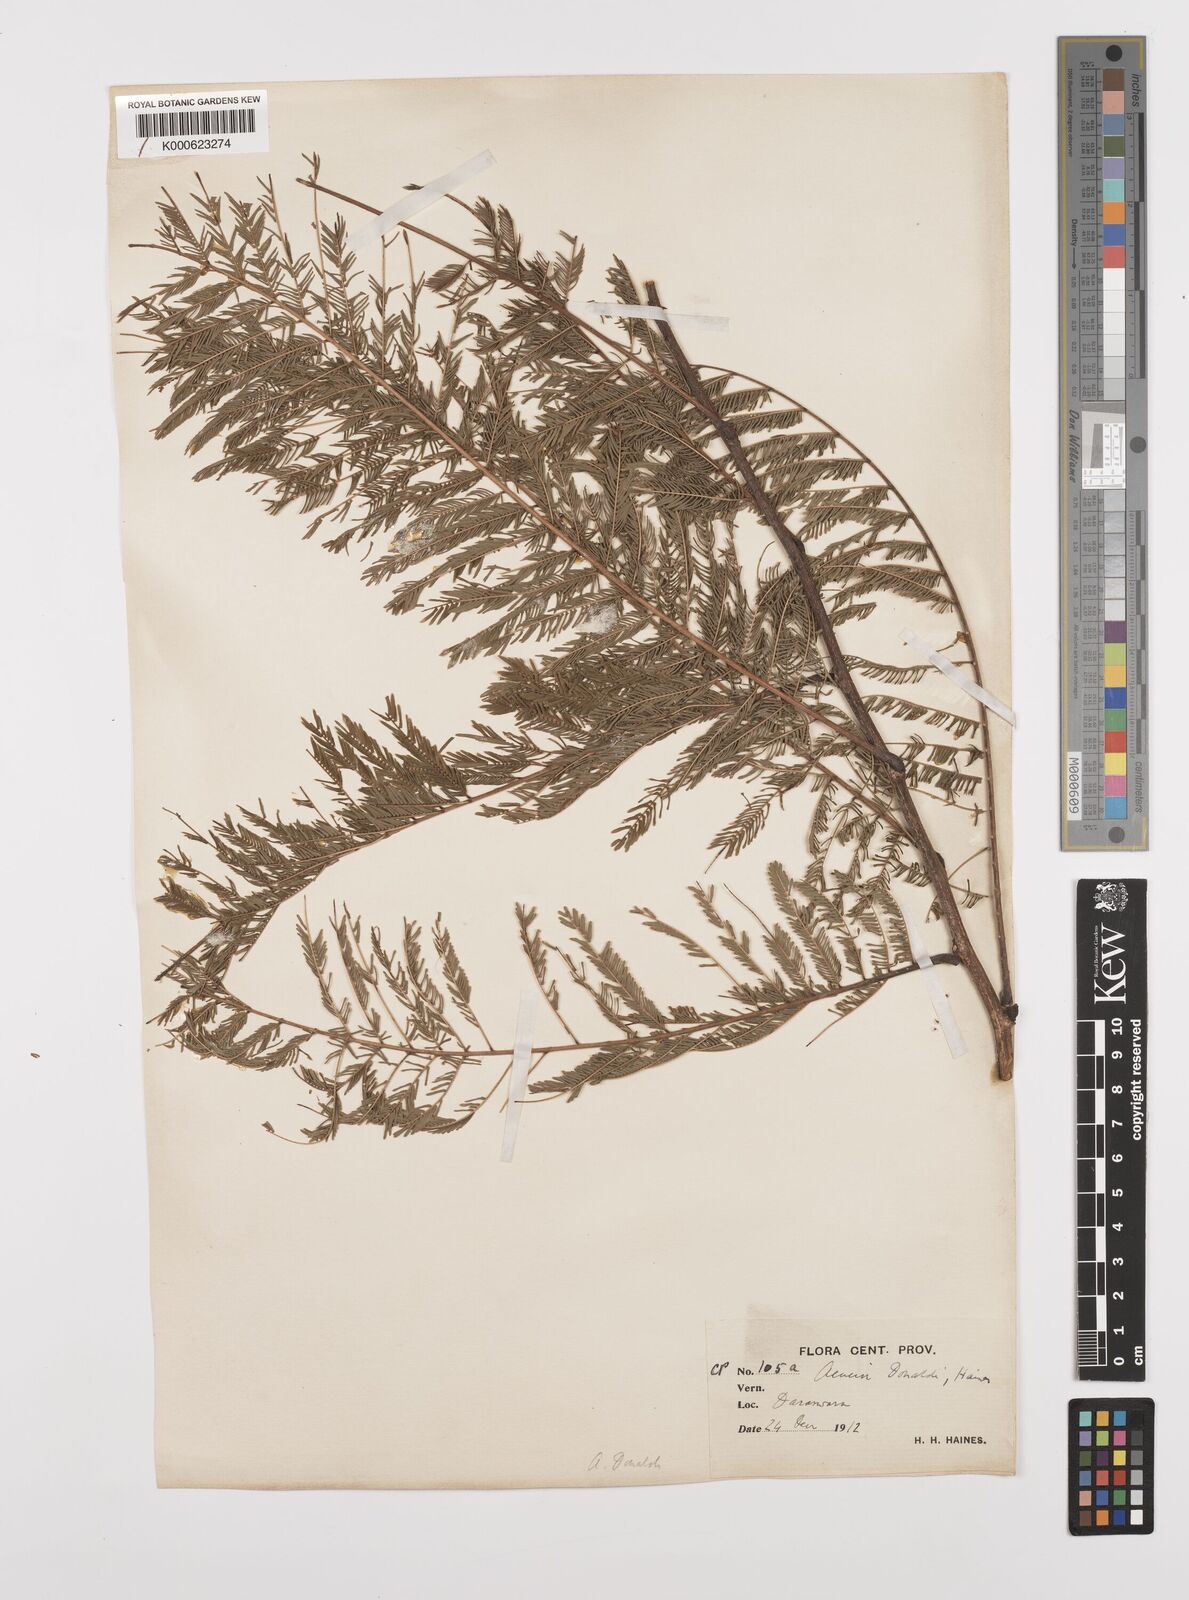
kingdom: Plantae
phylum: Tracheophyta
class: Magnoliopsida
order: Fabales
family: Fabaceae
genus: Senegalia
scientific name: Senegalia donaldi
